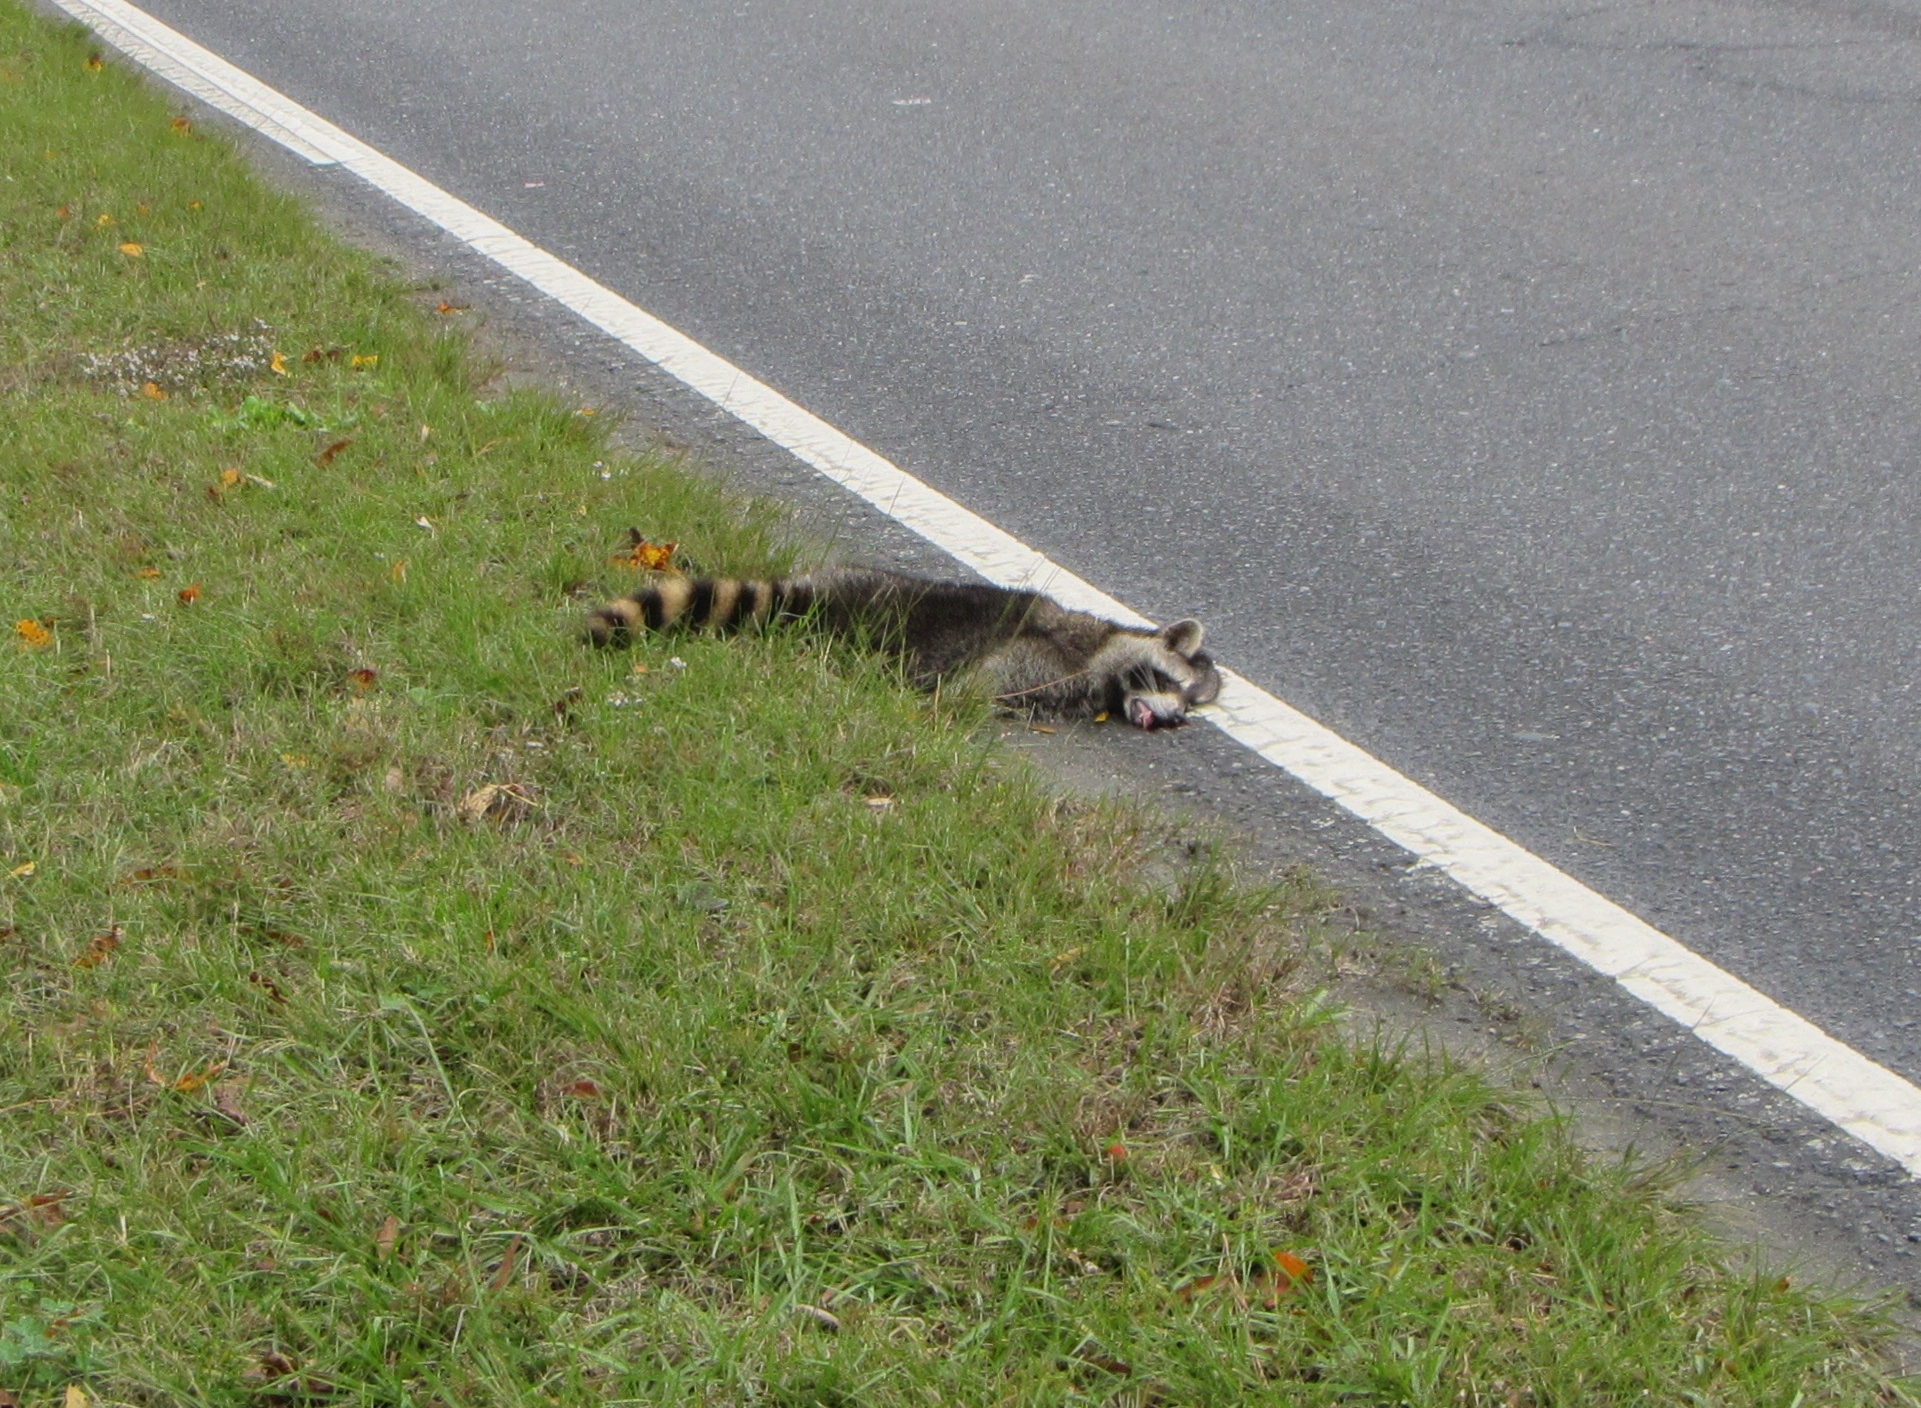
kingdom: Animalia
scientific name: Animalia
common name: NA
